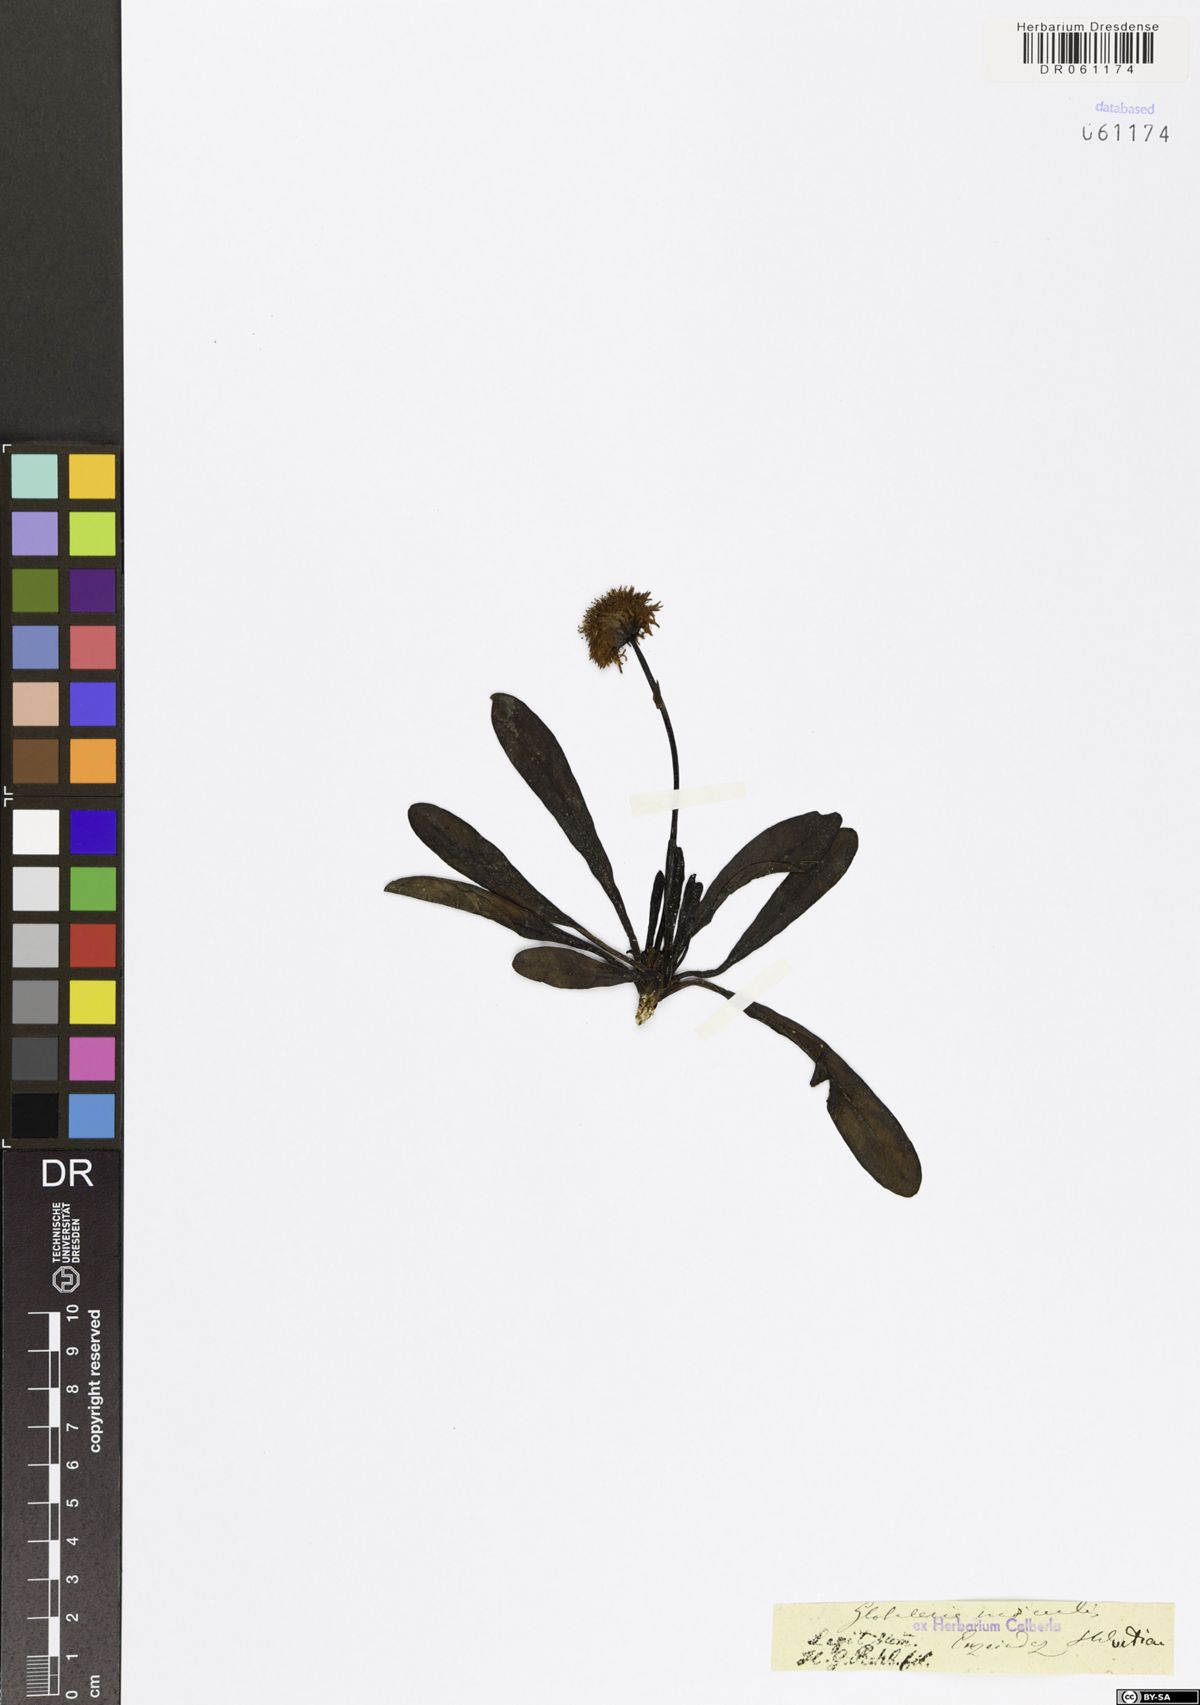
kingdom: Plantae
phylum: Tracheophyta
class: Magnoliopsida
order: Lamiales
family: Plantaginaceae
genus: Globularia
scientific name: Globularia nudicaulis
